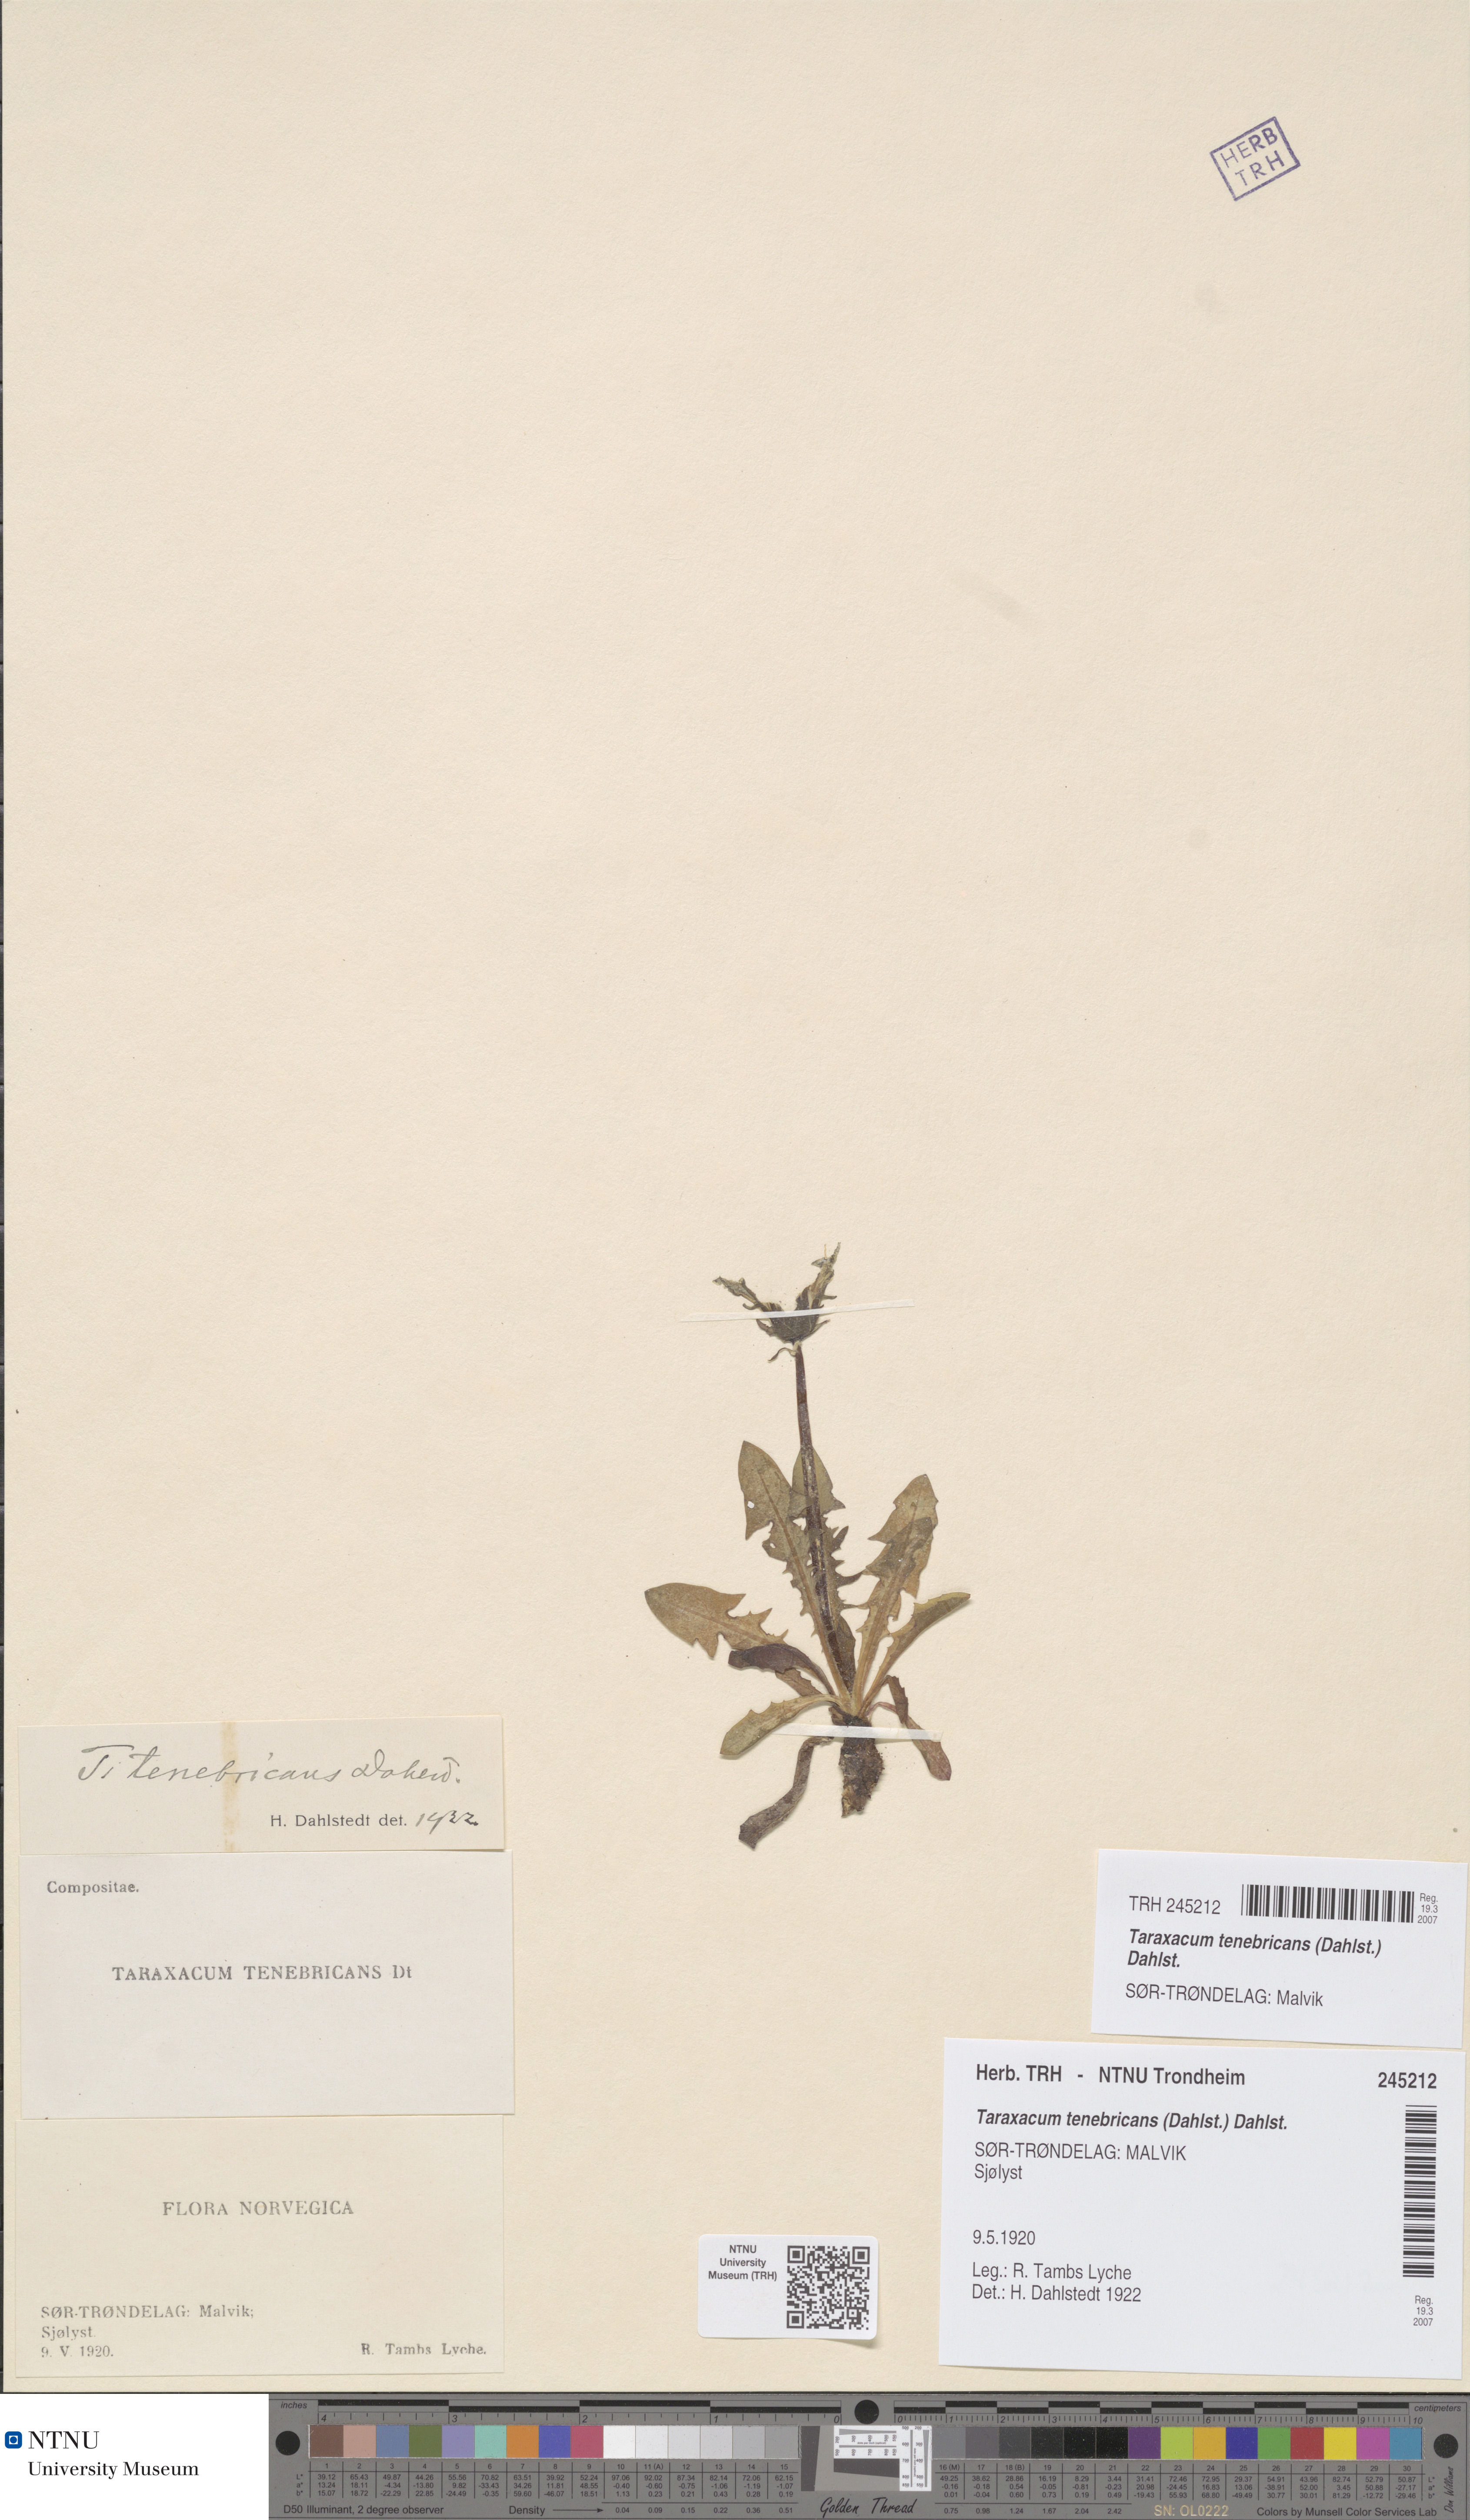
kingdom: Plantae
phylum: Tracheophyta
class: Magnoliopsida
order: Asterales
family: Asteraceae
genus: Taraxacum
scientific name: Taraxacum tenebricans
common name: Shiny-leaved dandelion
